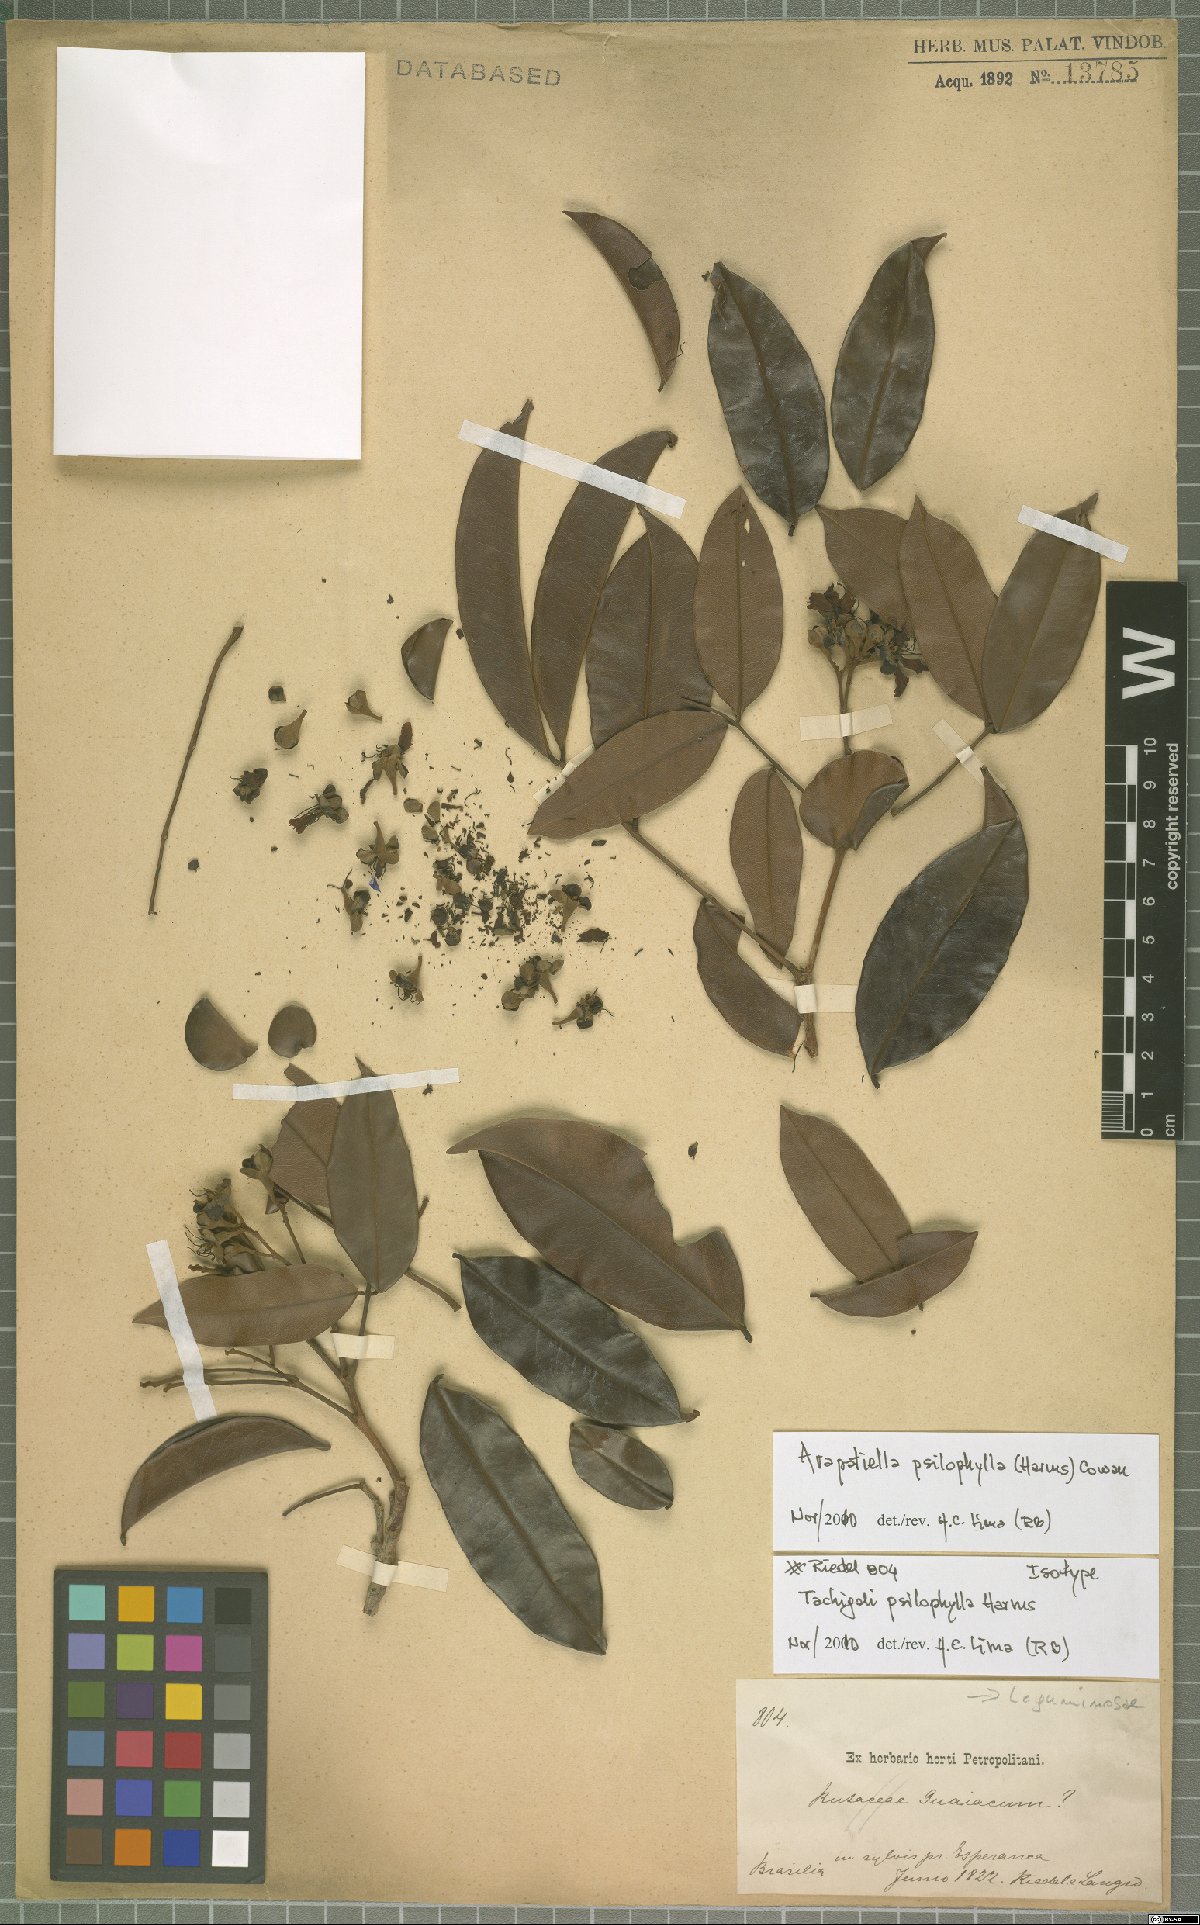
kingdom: Plantae
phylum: Tracheophyta
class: Magnoliopsida
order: Fabales
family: Fabaceae
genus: Arapatiella
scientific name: Arapatiella psilophylla
